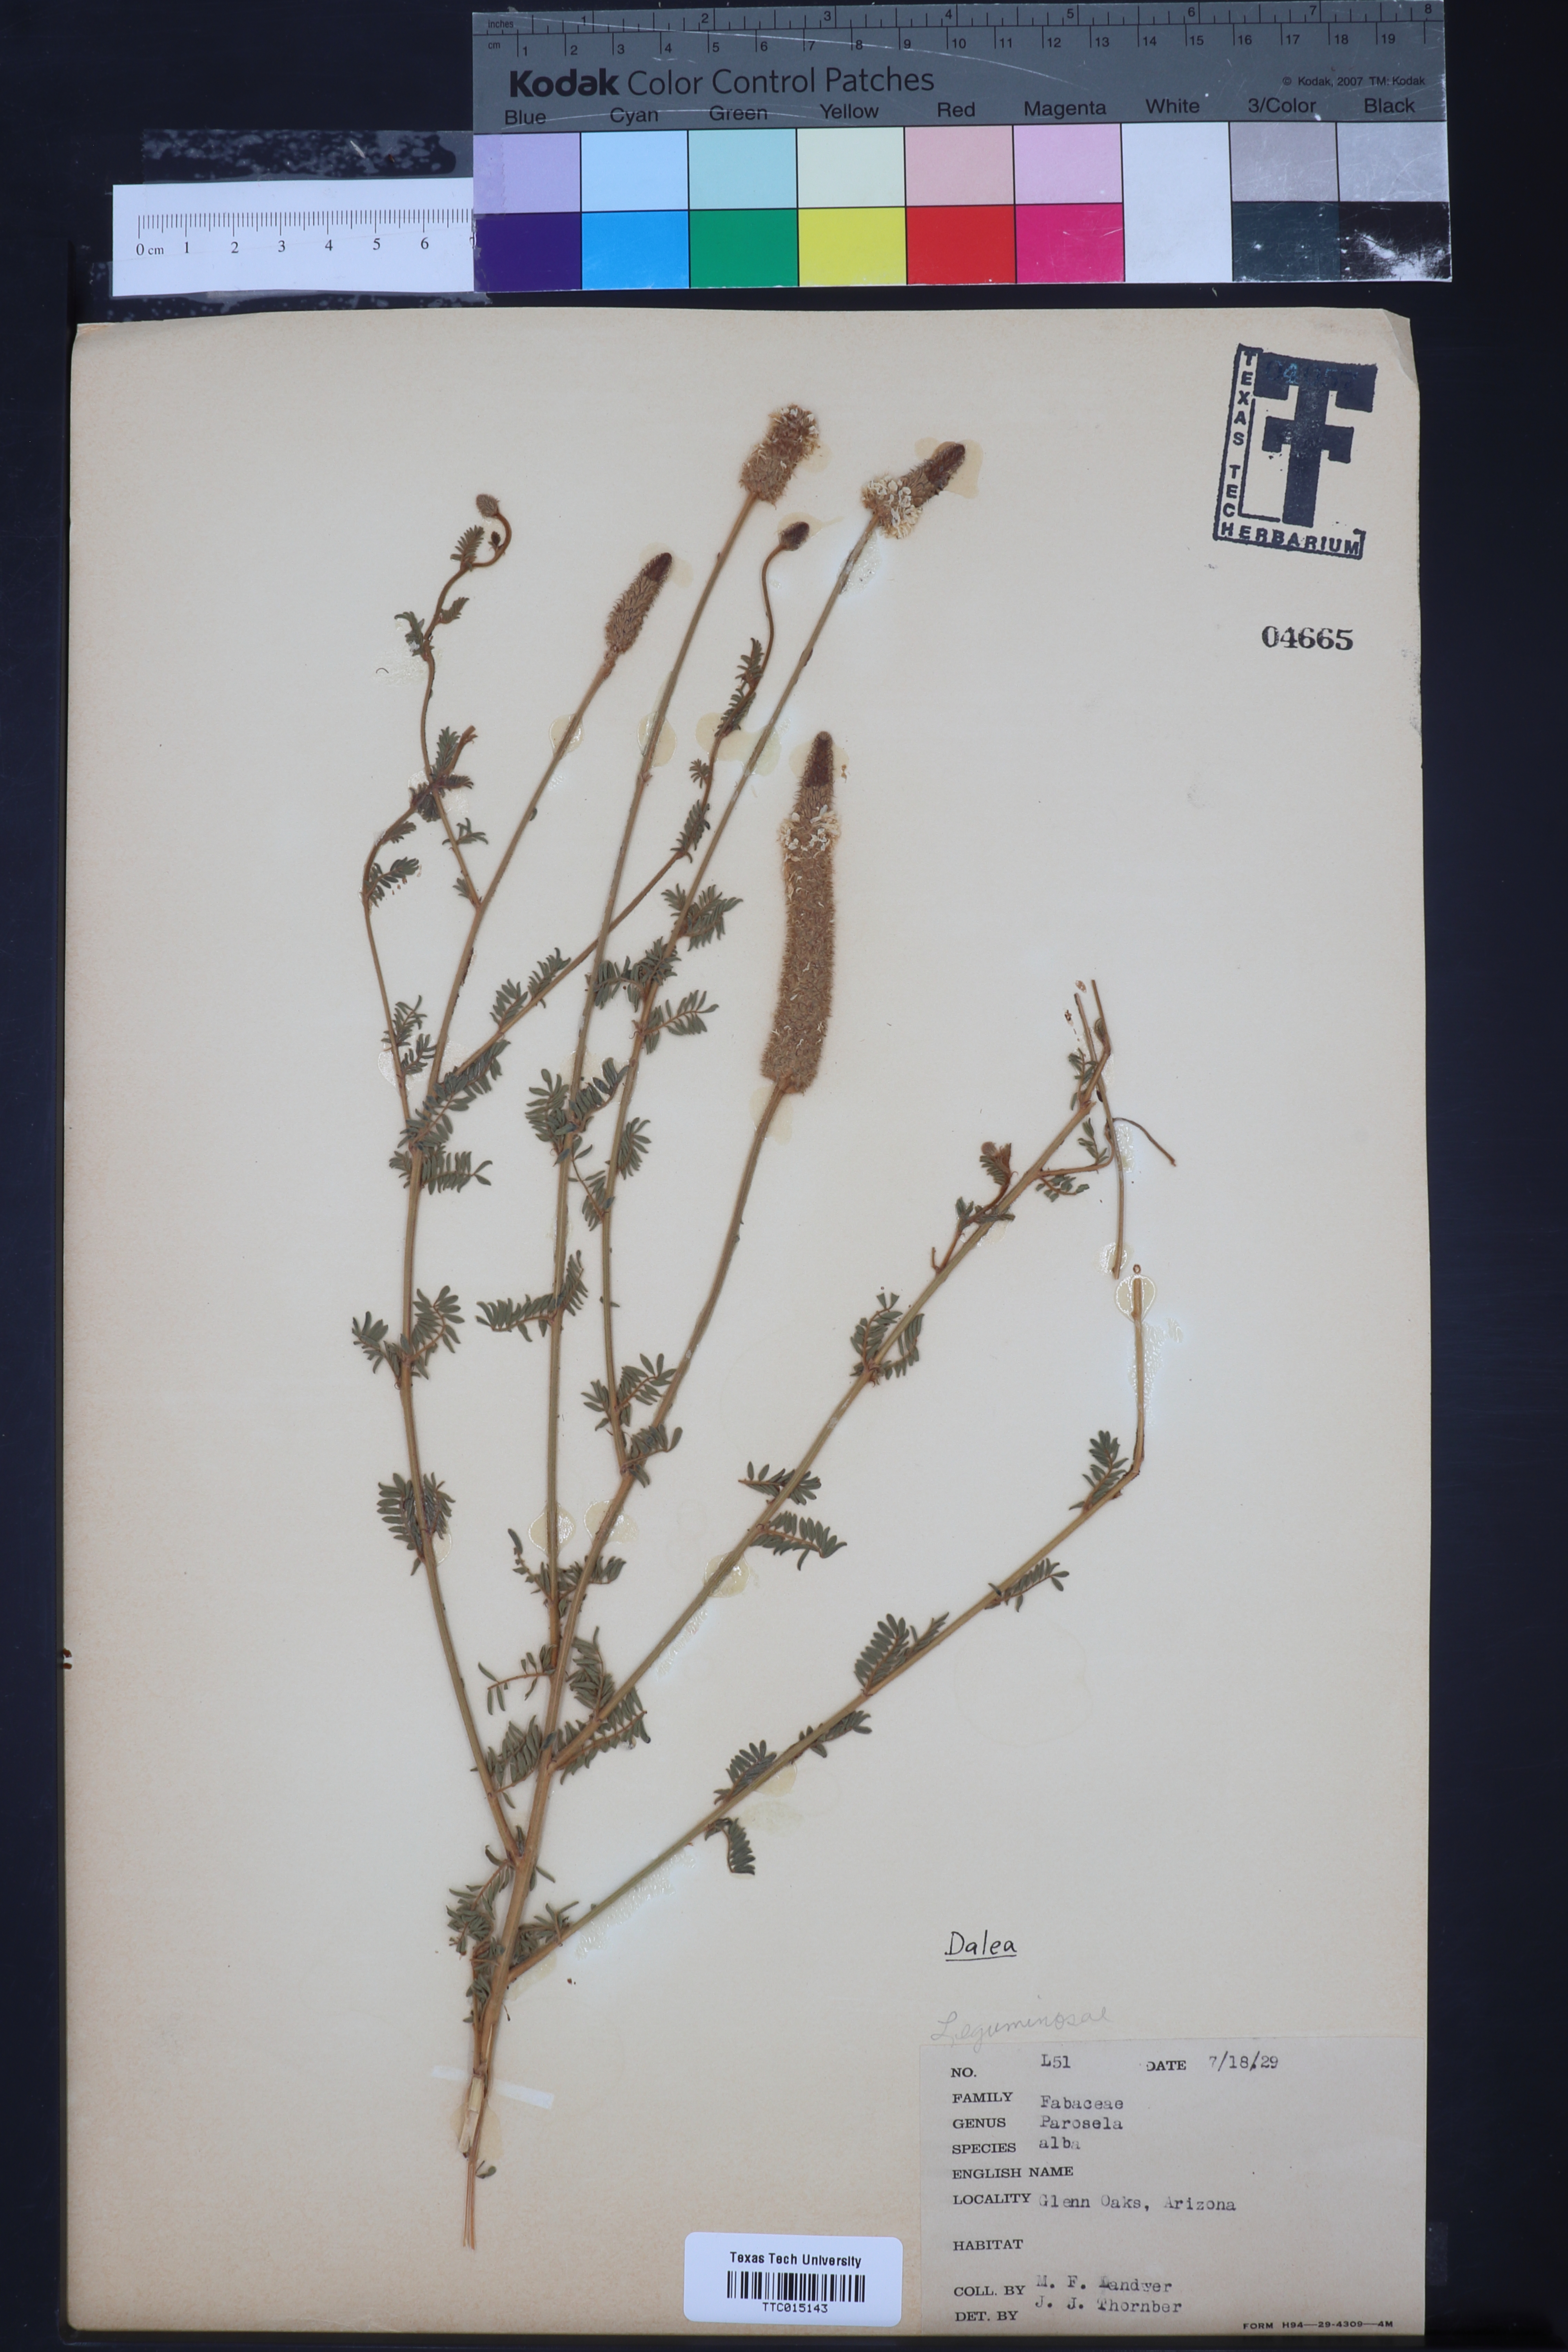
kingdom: Plantae
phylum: Tracheophyta
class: Magnoliopsida
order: Fabales
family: Fabaceae
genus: Dalea
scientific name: Dalea
